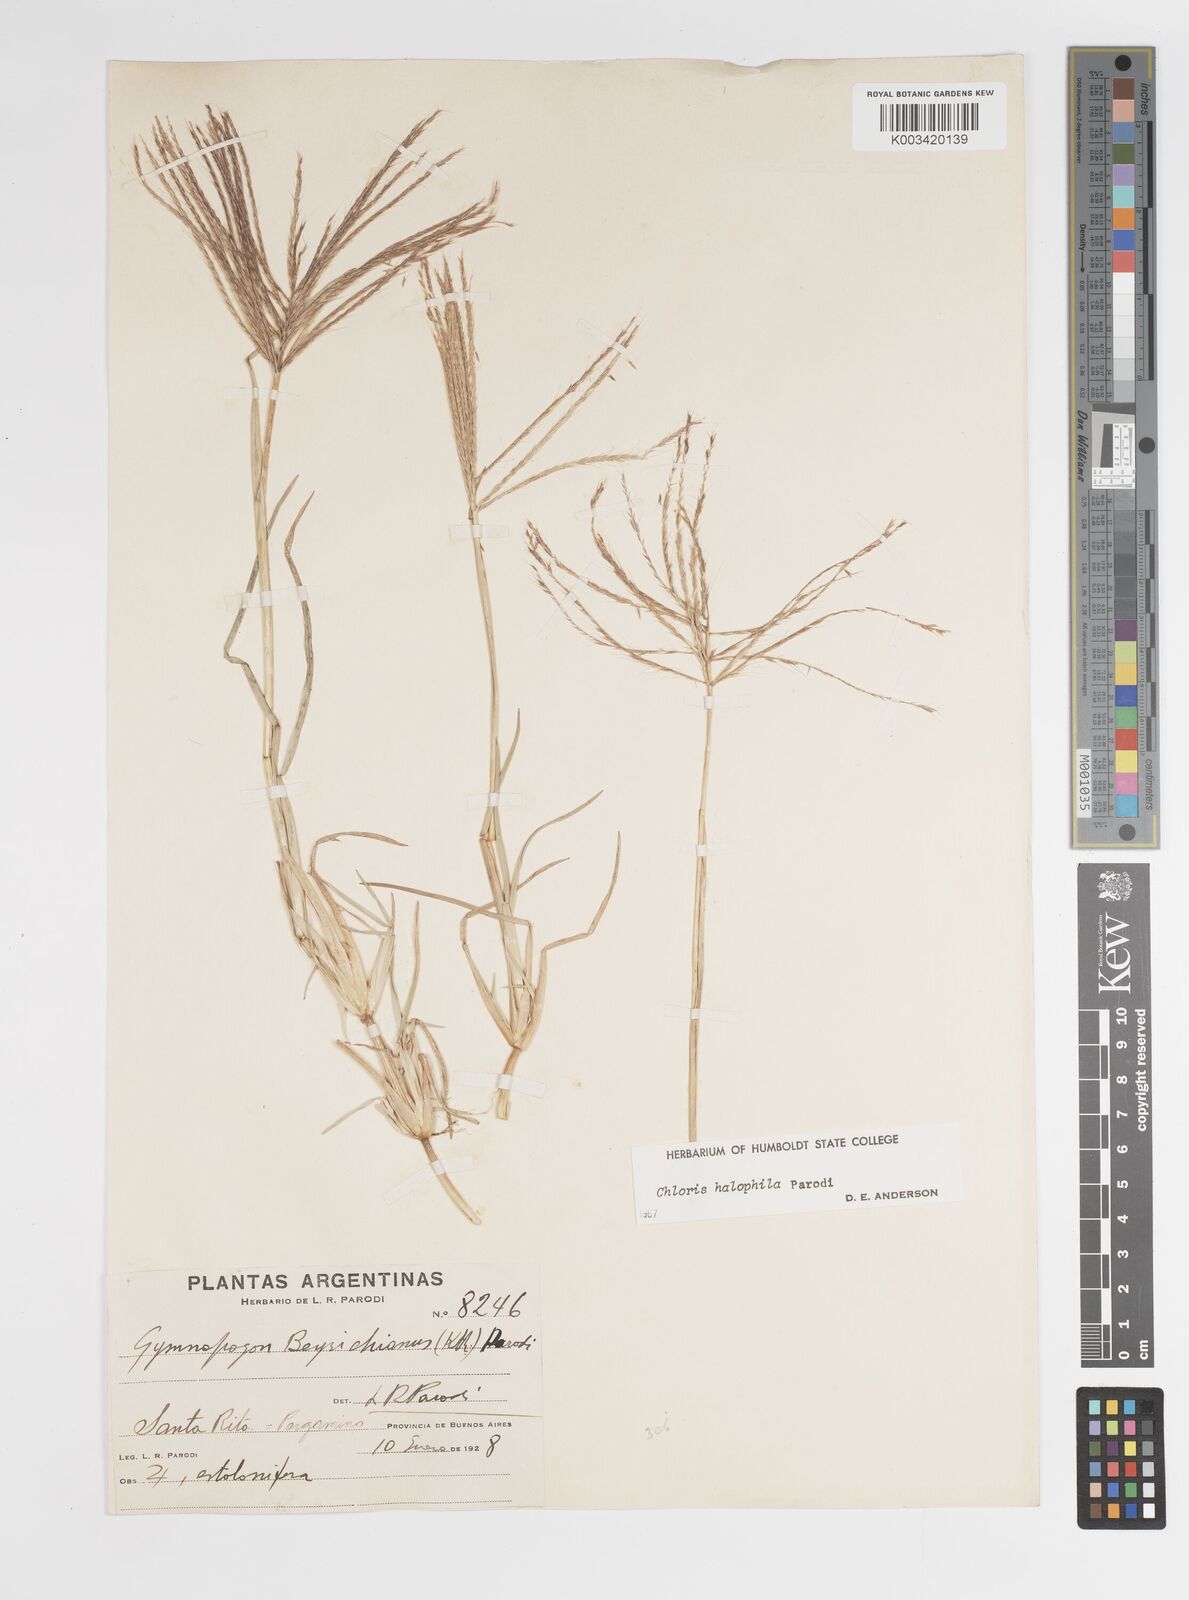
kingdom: Plantae
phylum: Tracheophyta
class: Liliopsida
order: Poales
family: Poaceae
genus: Chloris
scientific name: Chloris halophila
